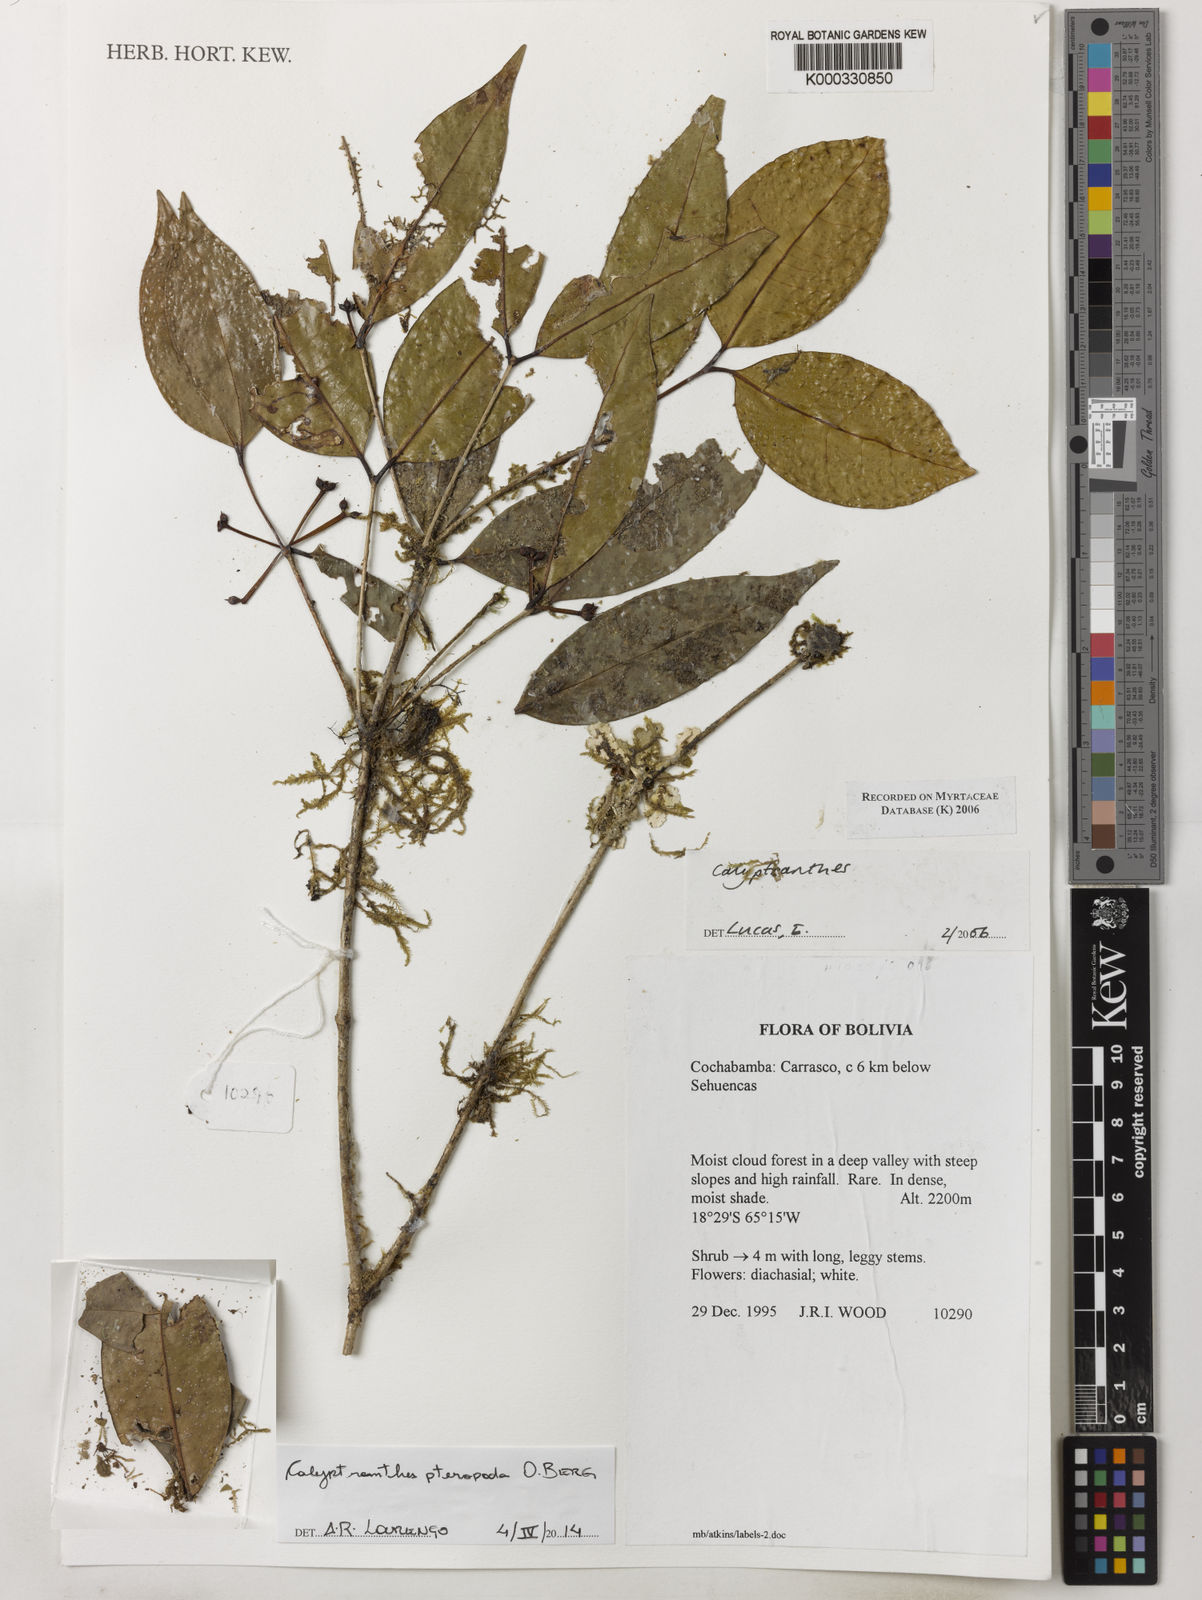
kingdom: Plantae
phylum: Tracheophyta
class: Magnoliopsida
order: Myrtales
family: Myrtaceae
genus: Myrcia
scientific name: Myrcia pteropoda
